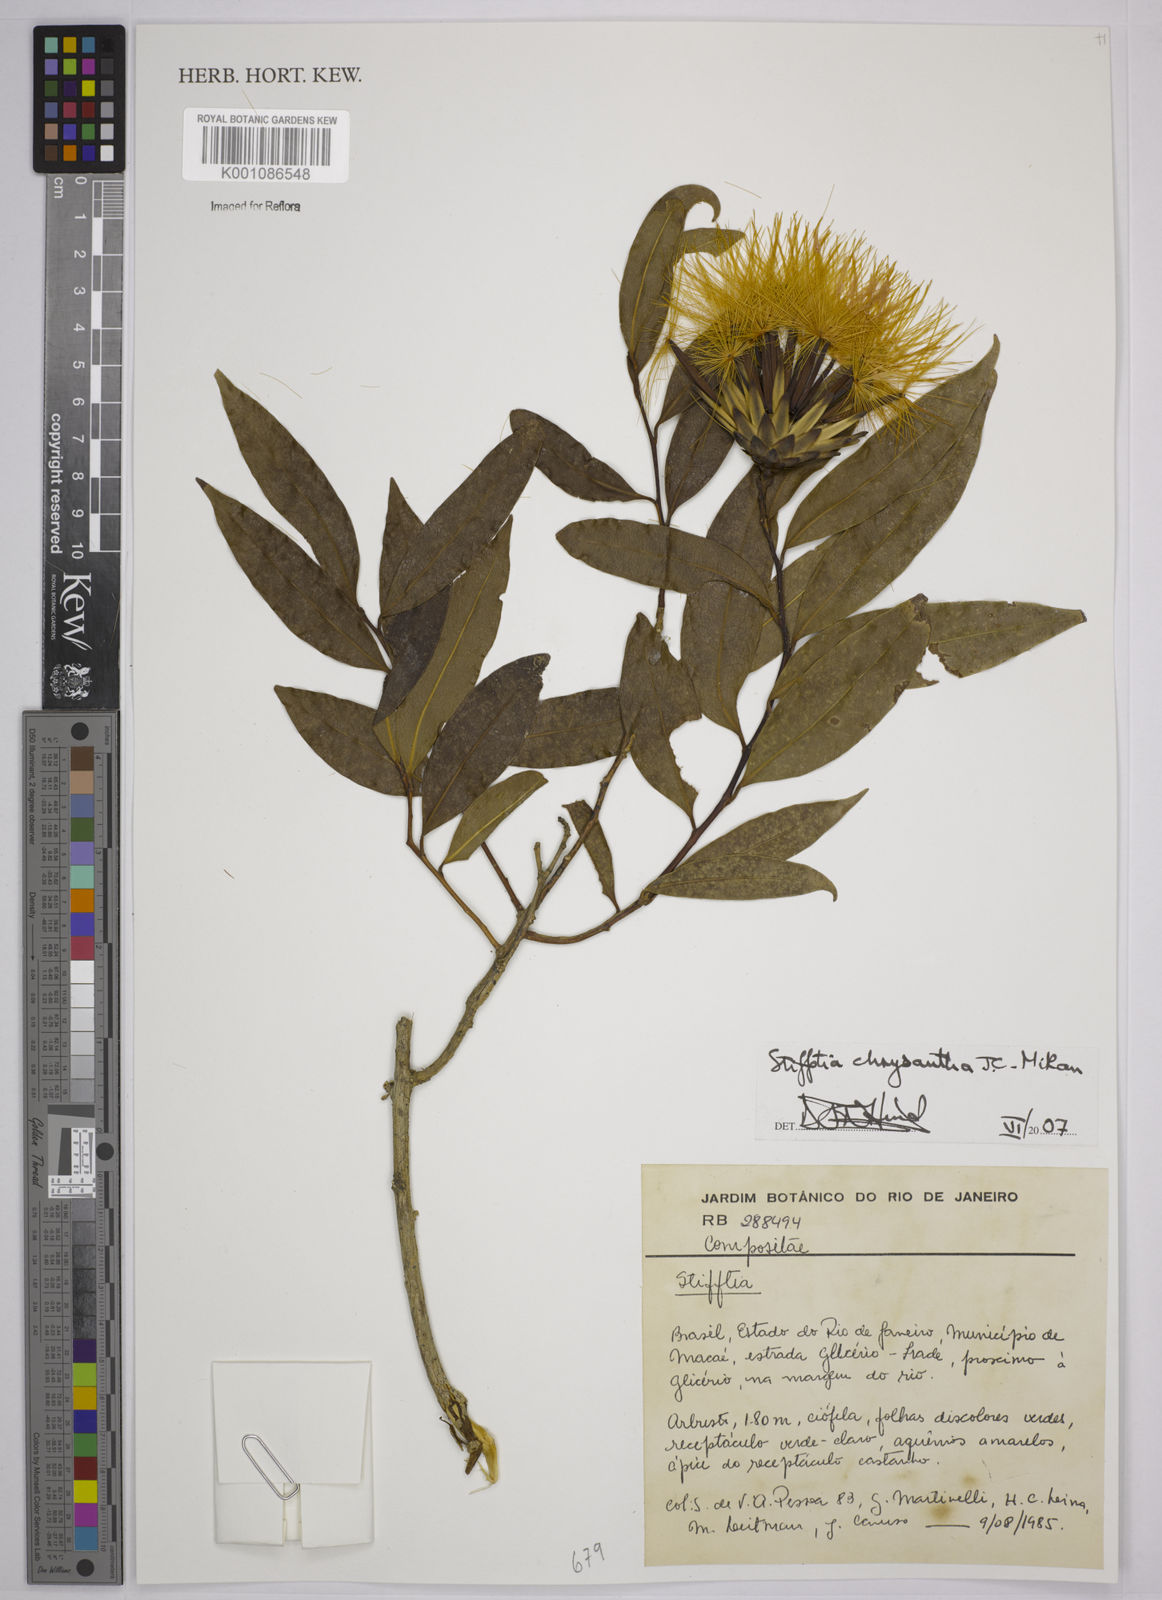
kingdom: Plantae
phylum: Tracheophyta
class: Magnoliopsida
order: Asterales
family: Asteraceae
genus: Stifftia
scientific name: Stifftia chrysantha
